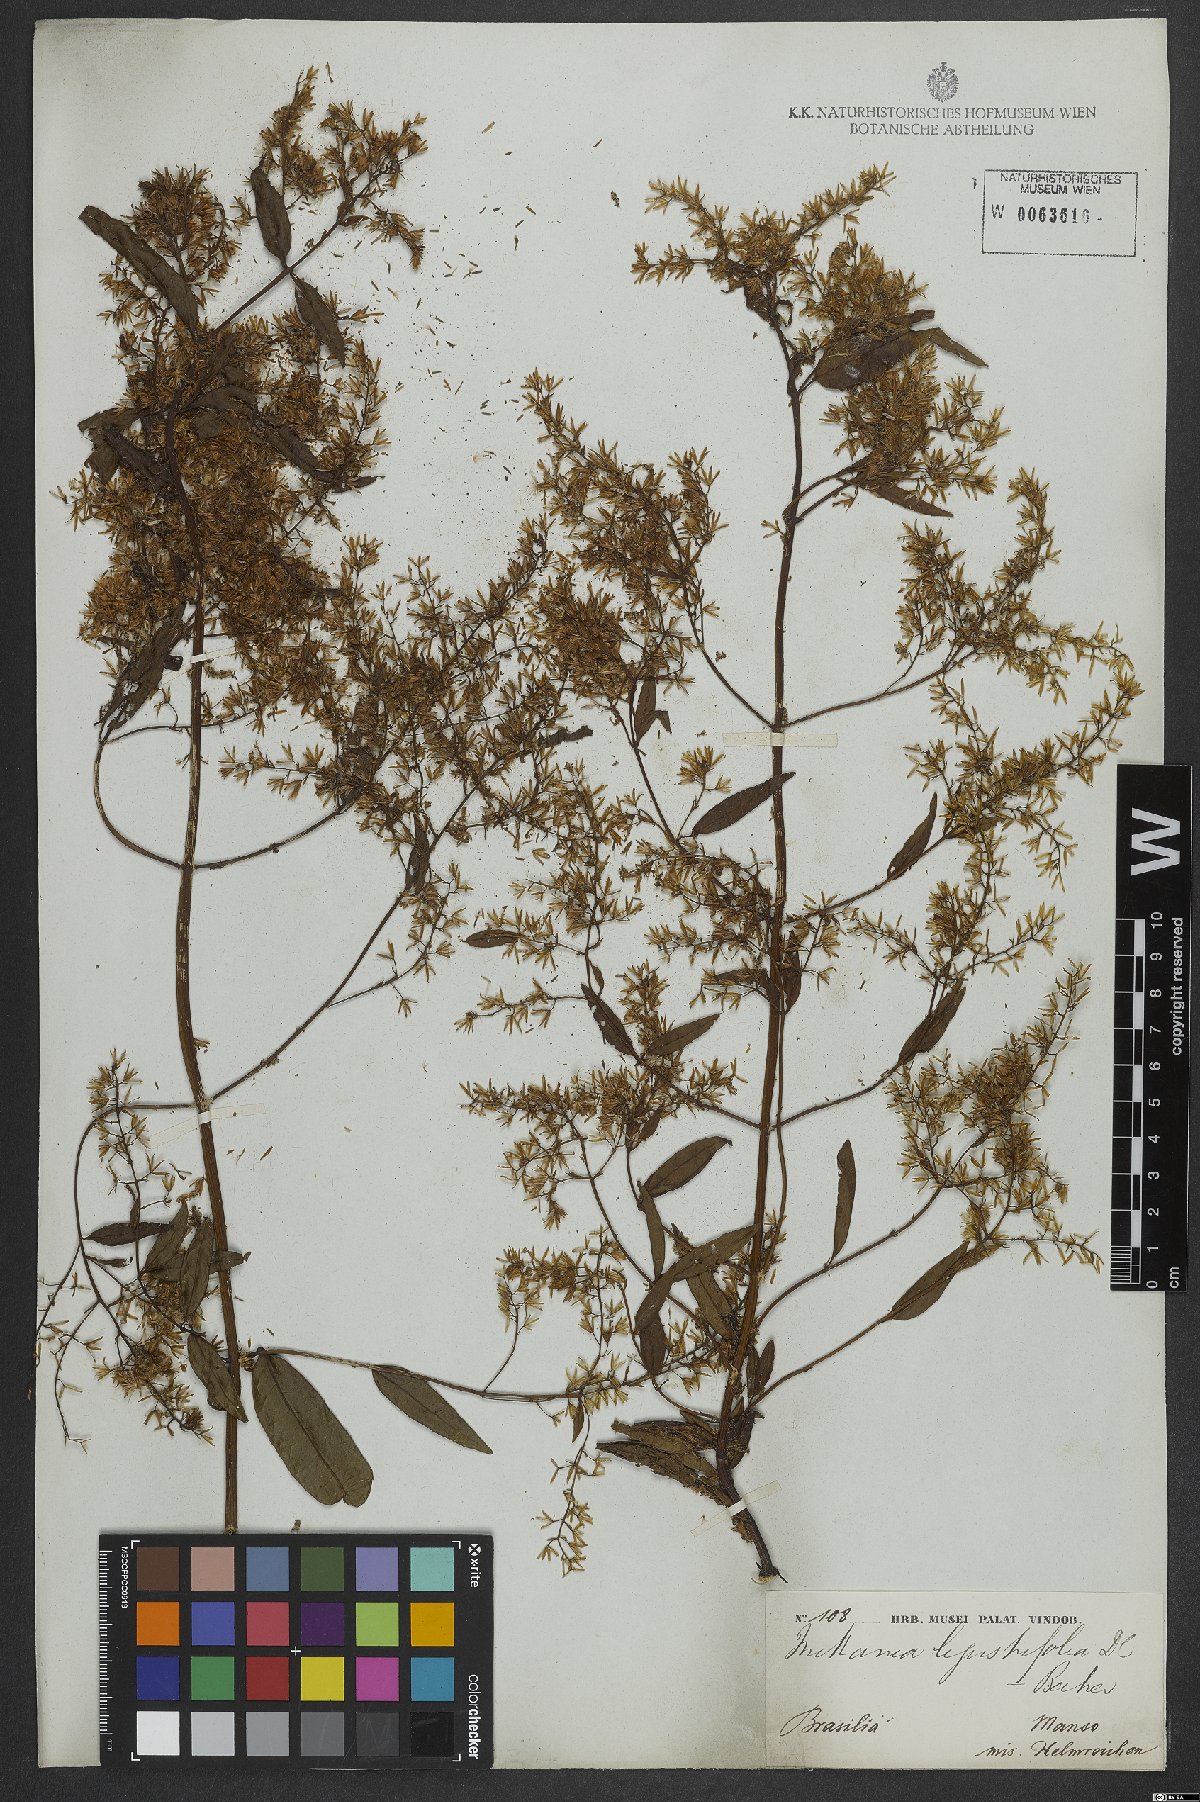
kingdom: Plantae
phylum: Tracheophyta
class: Magnoliopsida
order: Asterales
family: Asteraceae
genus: Mikania
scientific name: Mikania ligustrifolia
